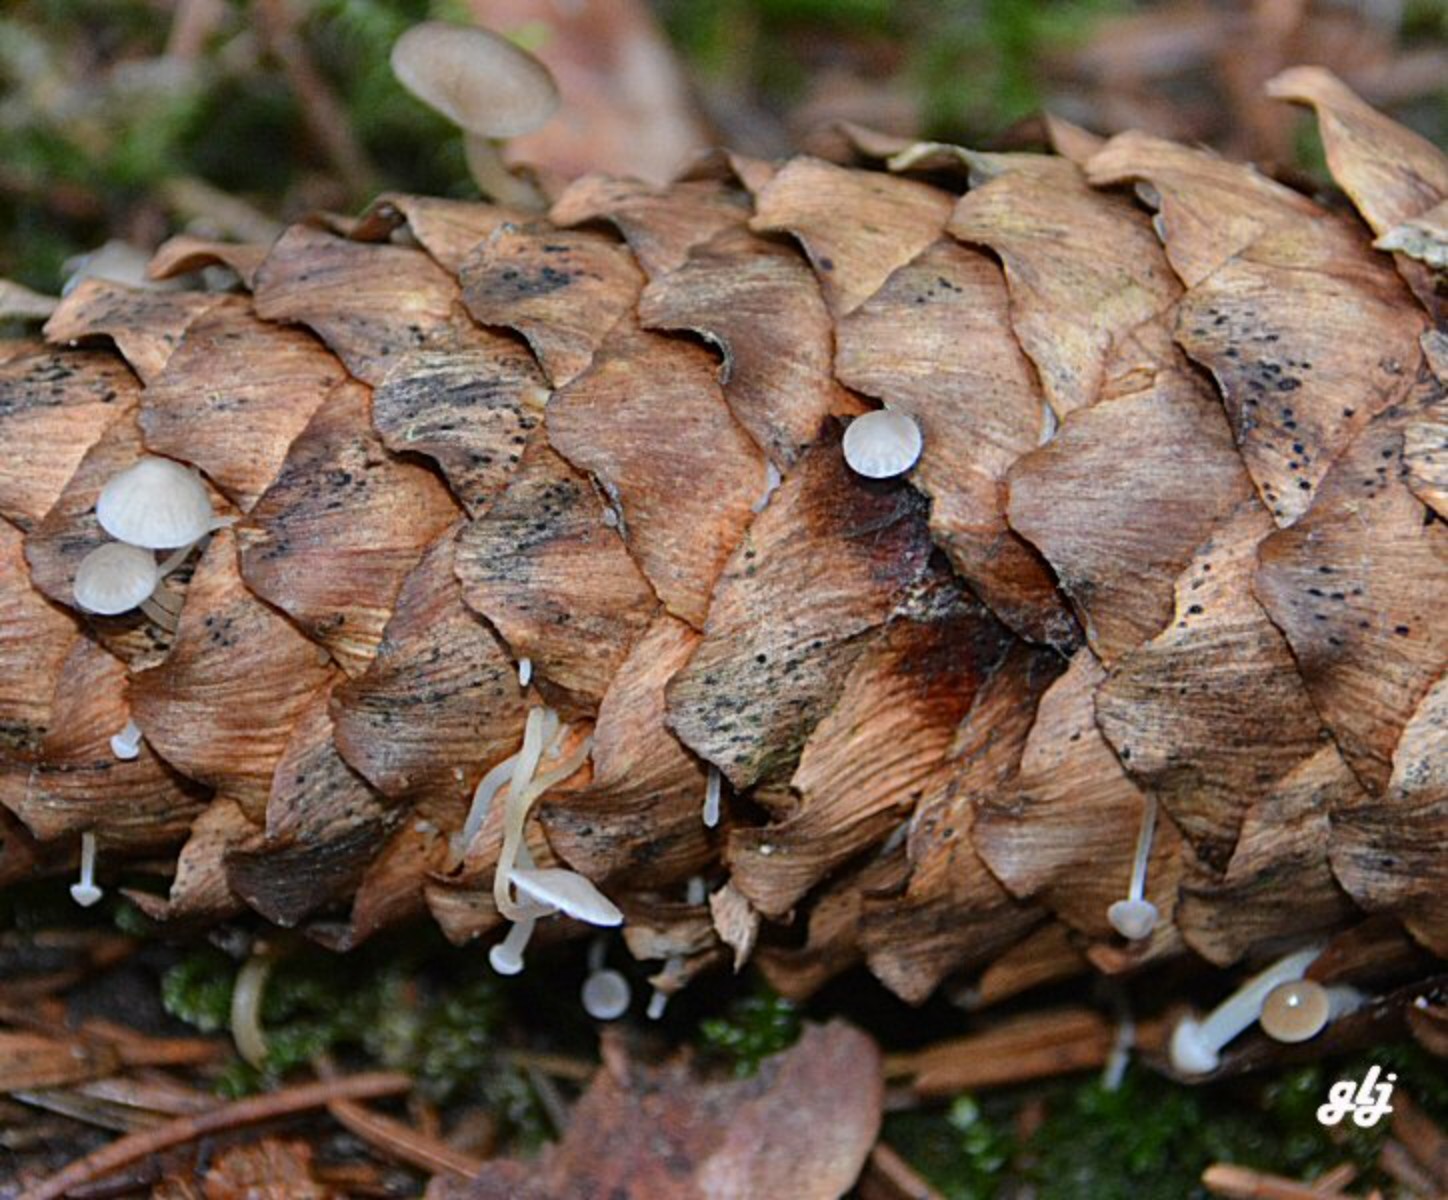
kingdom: Fungi
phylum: Basidiomycota
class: Agaricomycetes
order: Agaricales
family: Physalacriaceae
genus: Strobilurus
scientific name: Strobilurus esculentus
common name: gran-koglehat
